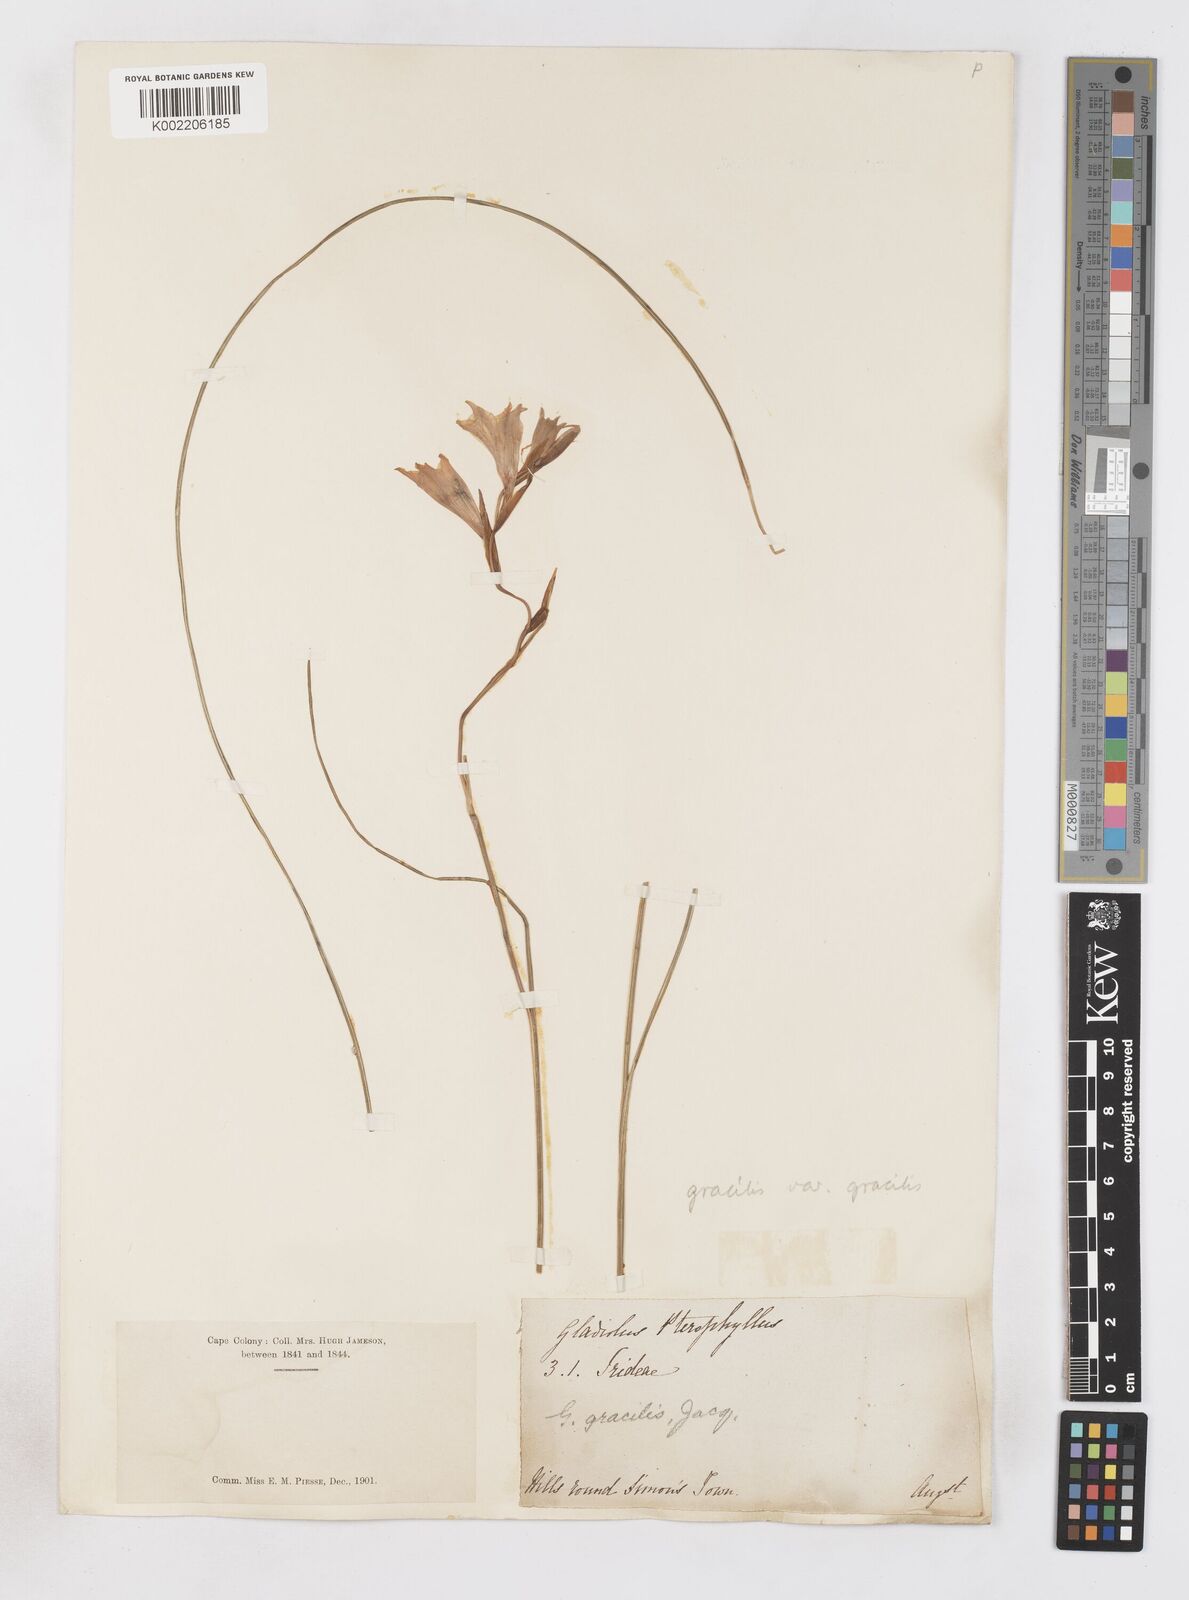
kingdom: Plantae
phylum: Tracheophyta
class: Liliopsida
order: Asparagales
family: Iridaceae
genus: Gladiolus
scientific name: Gladiolus gracilis
